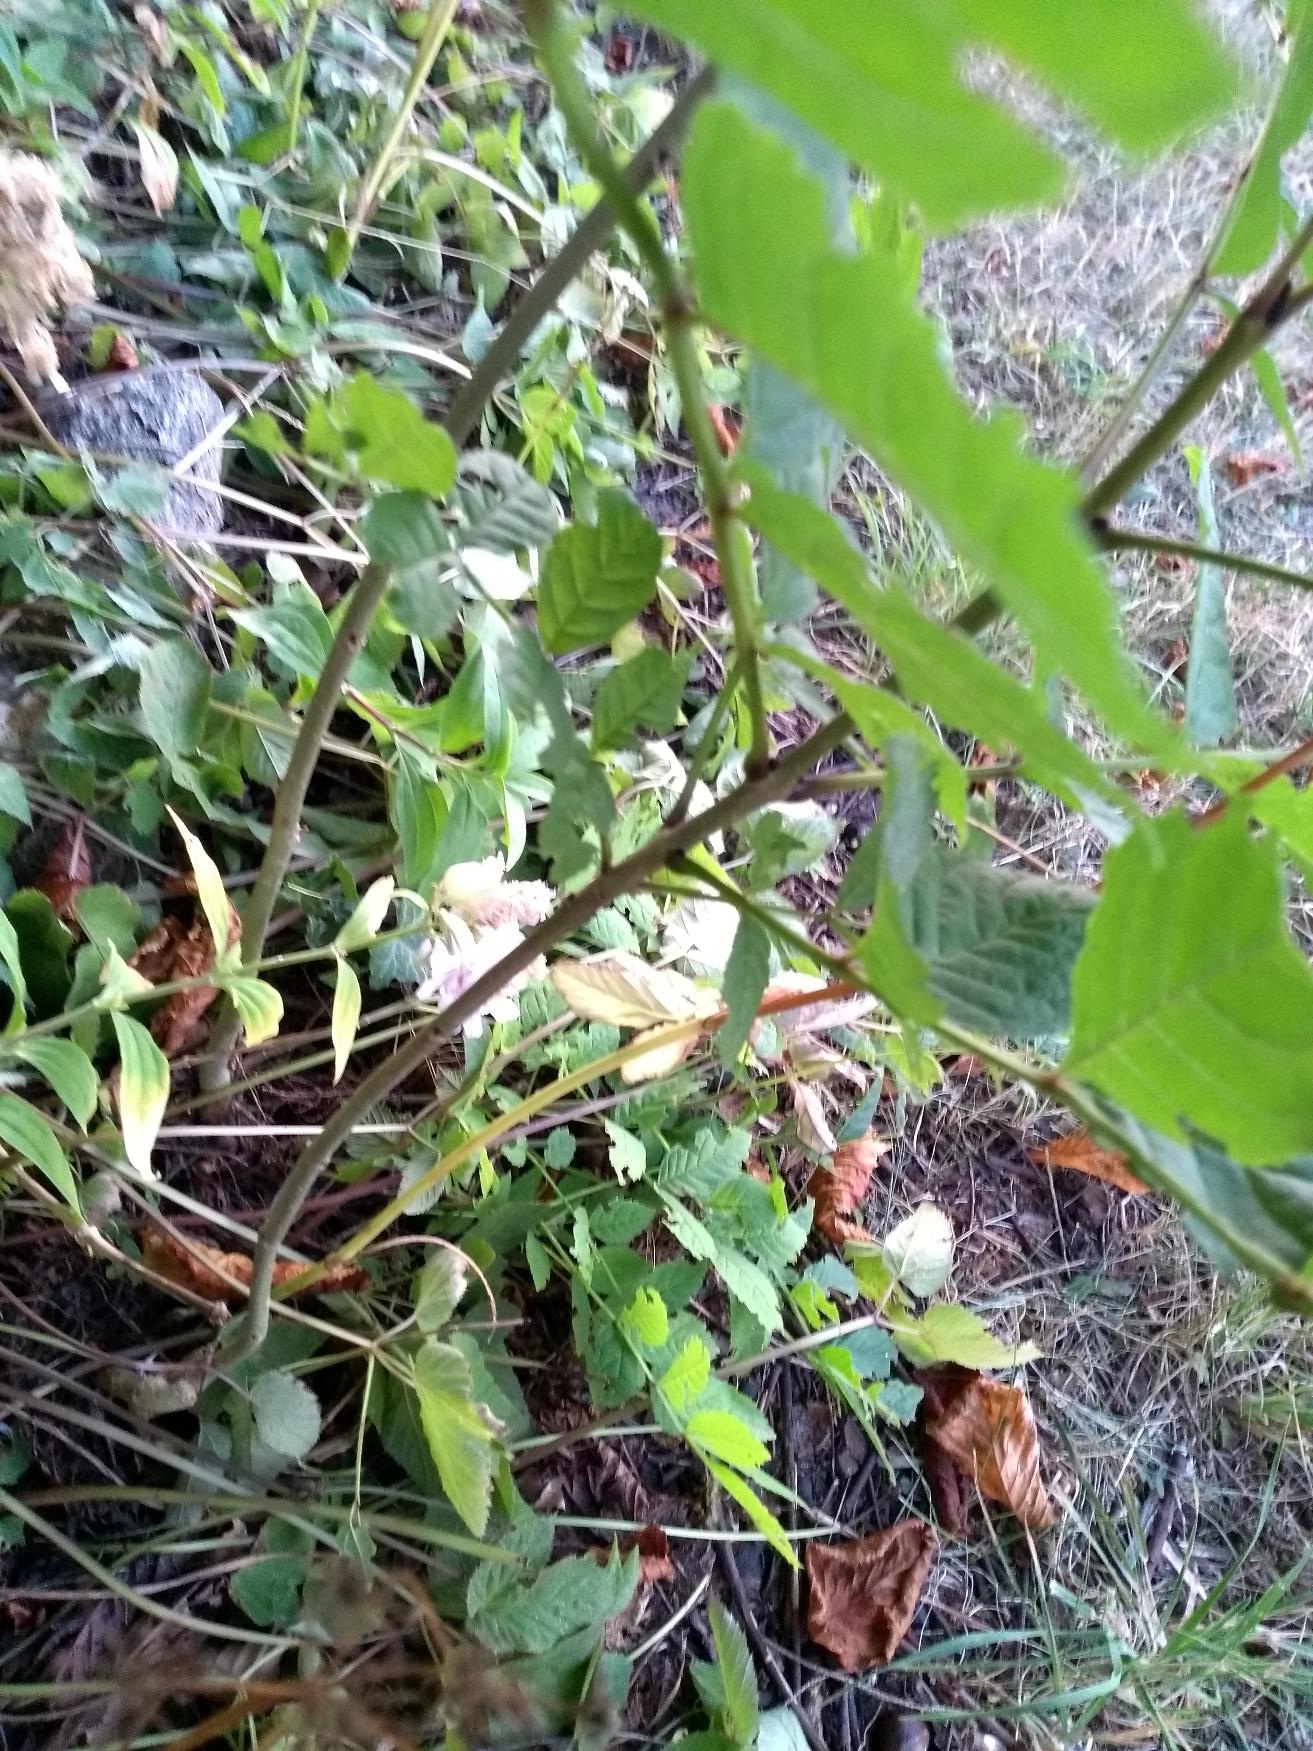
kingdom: Plantae
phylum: Tracheophyta
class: Magnoliopsida
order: Lamiales
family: Oleaceae
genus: Fraxinus
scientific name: Fraxinus excelsior
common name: Ask
